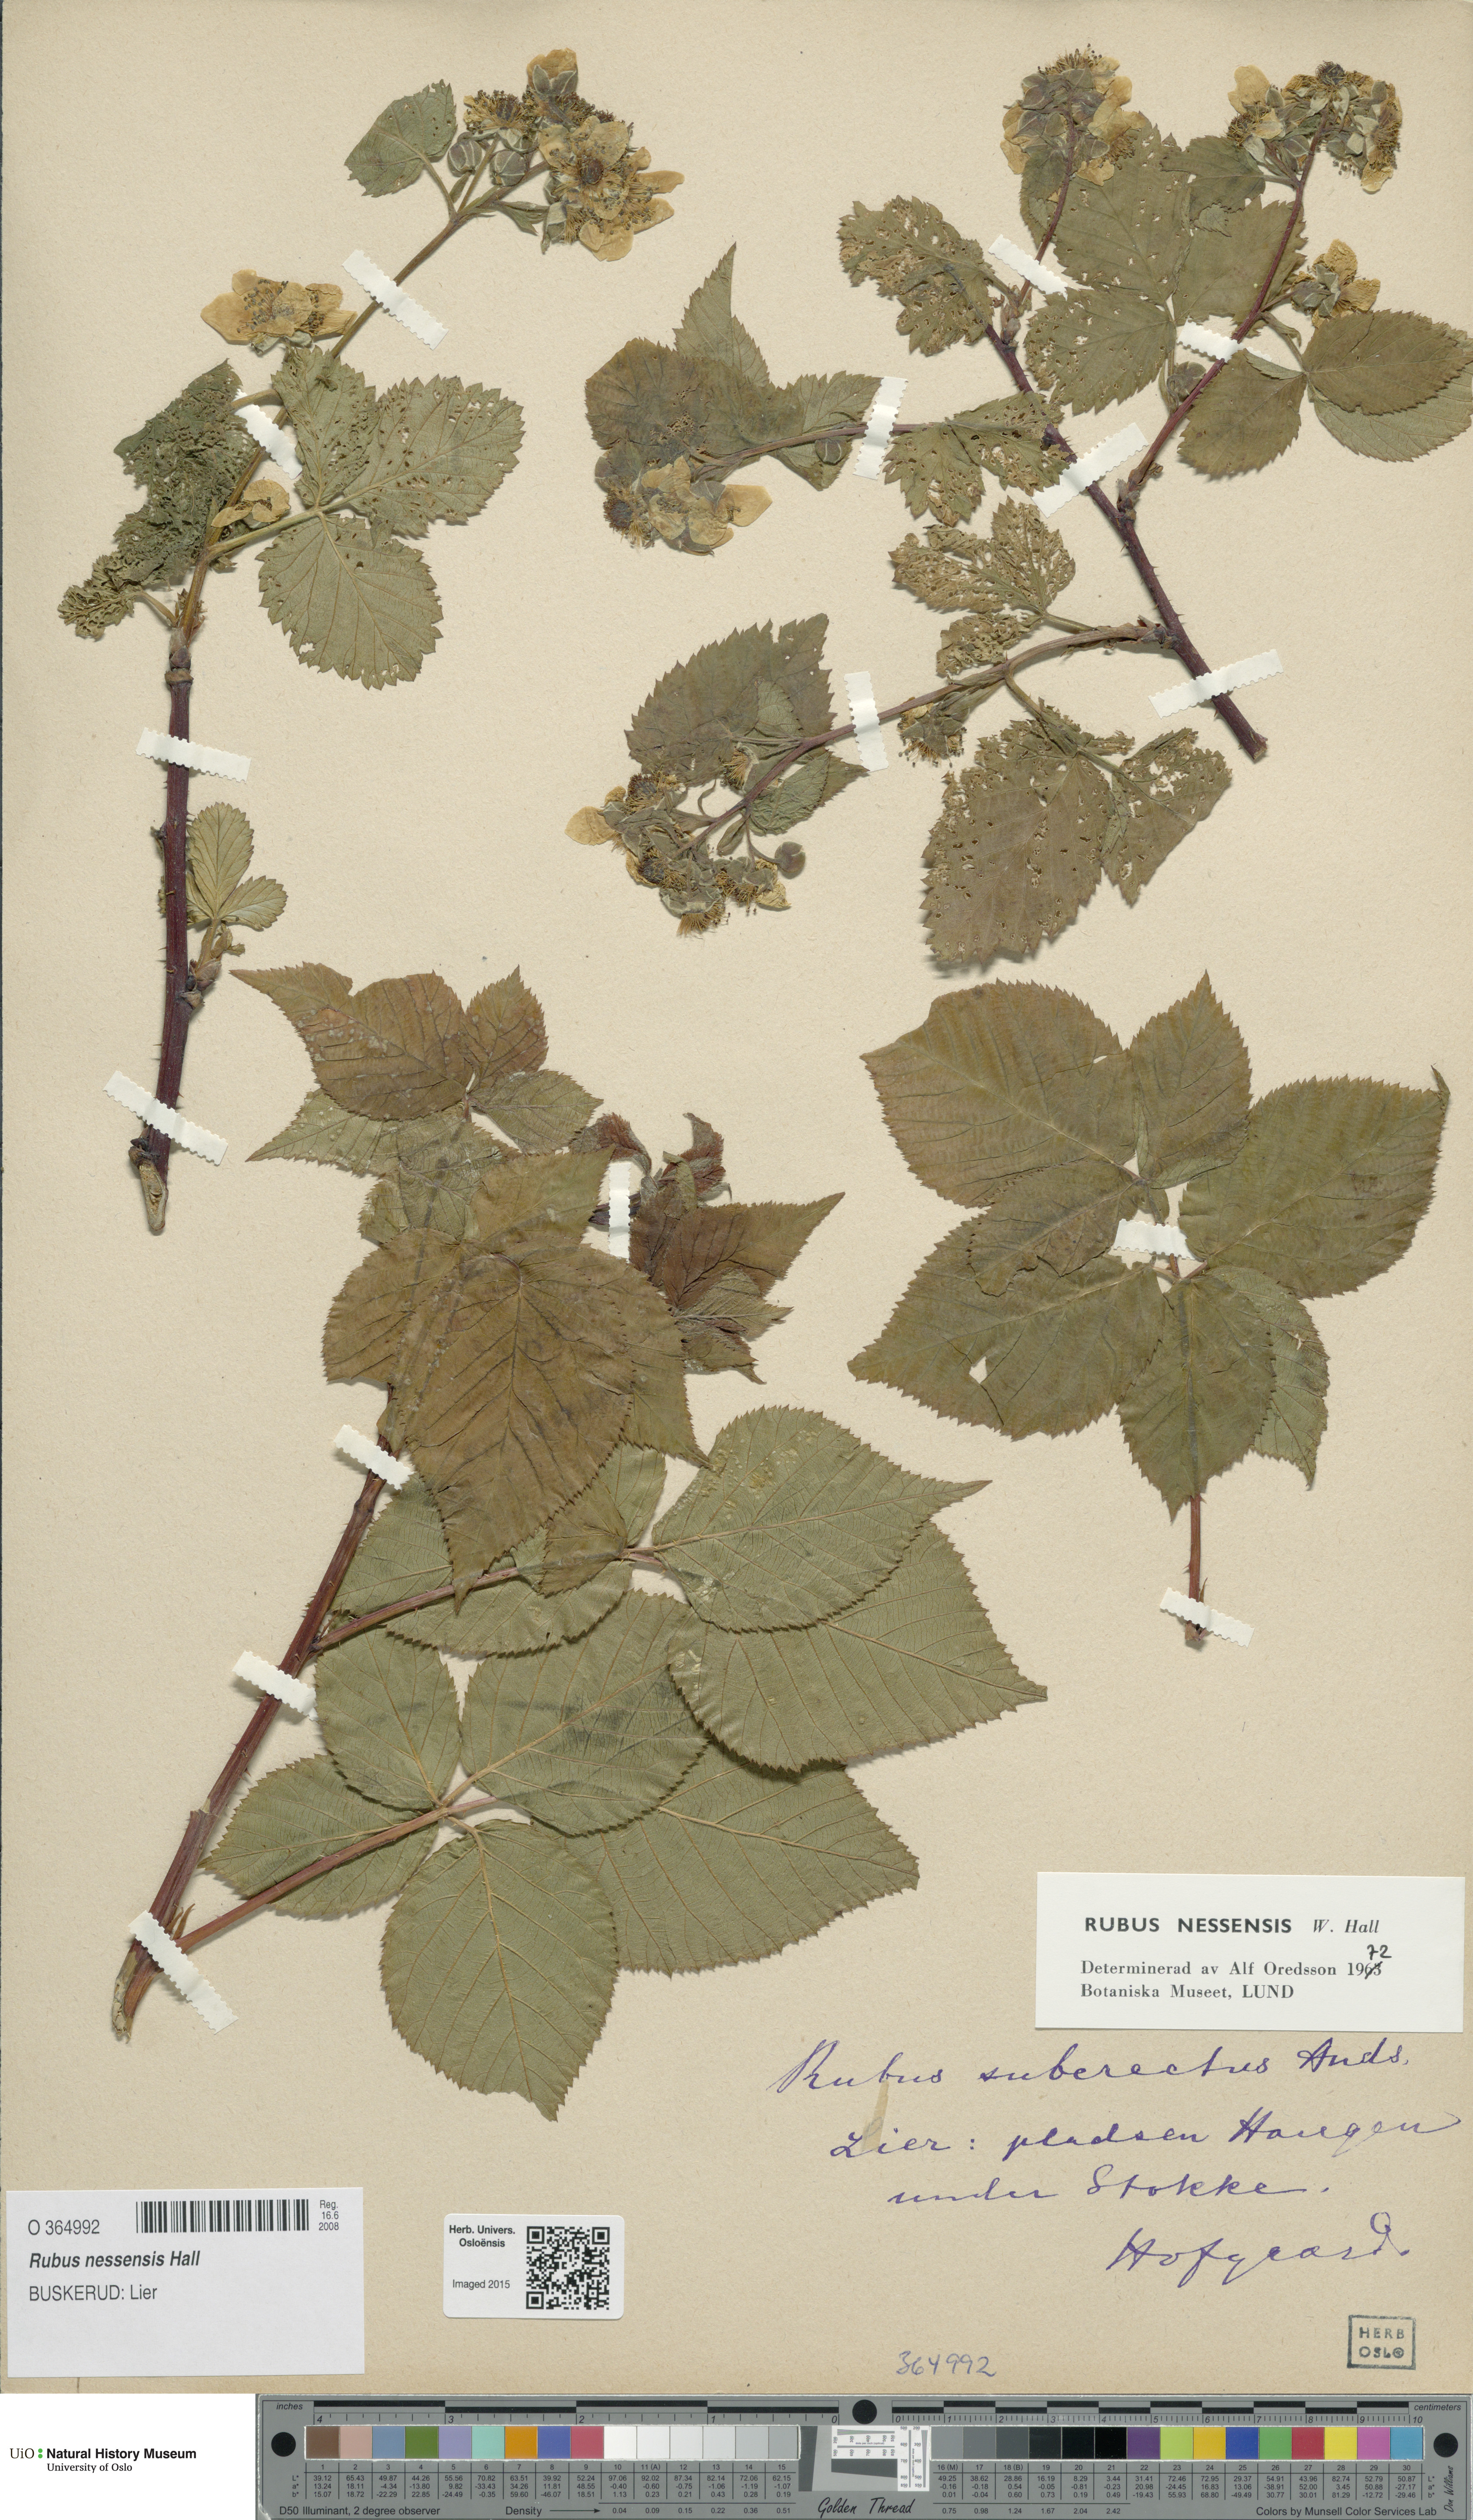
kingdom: Plantae
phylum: Tracheophyta
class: Magnoliopsida
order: Rosales
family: Rosaceae
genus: Rubus
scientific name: Rubus polonicus
